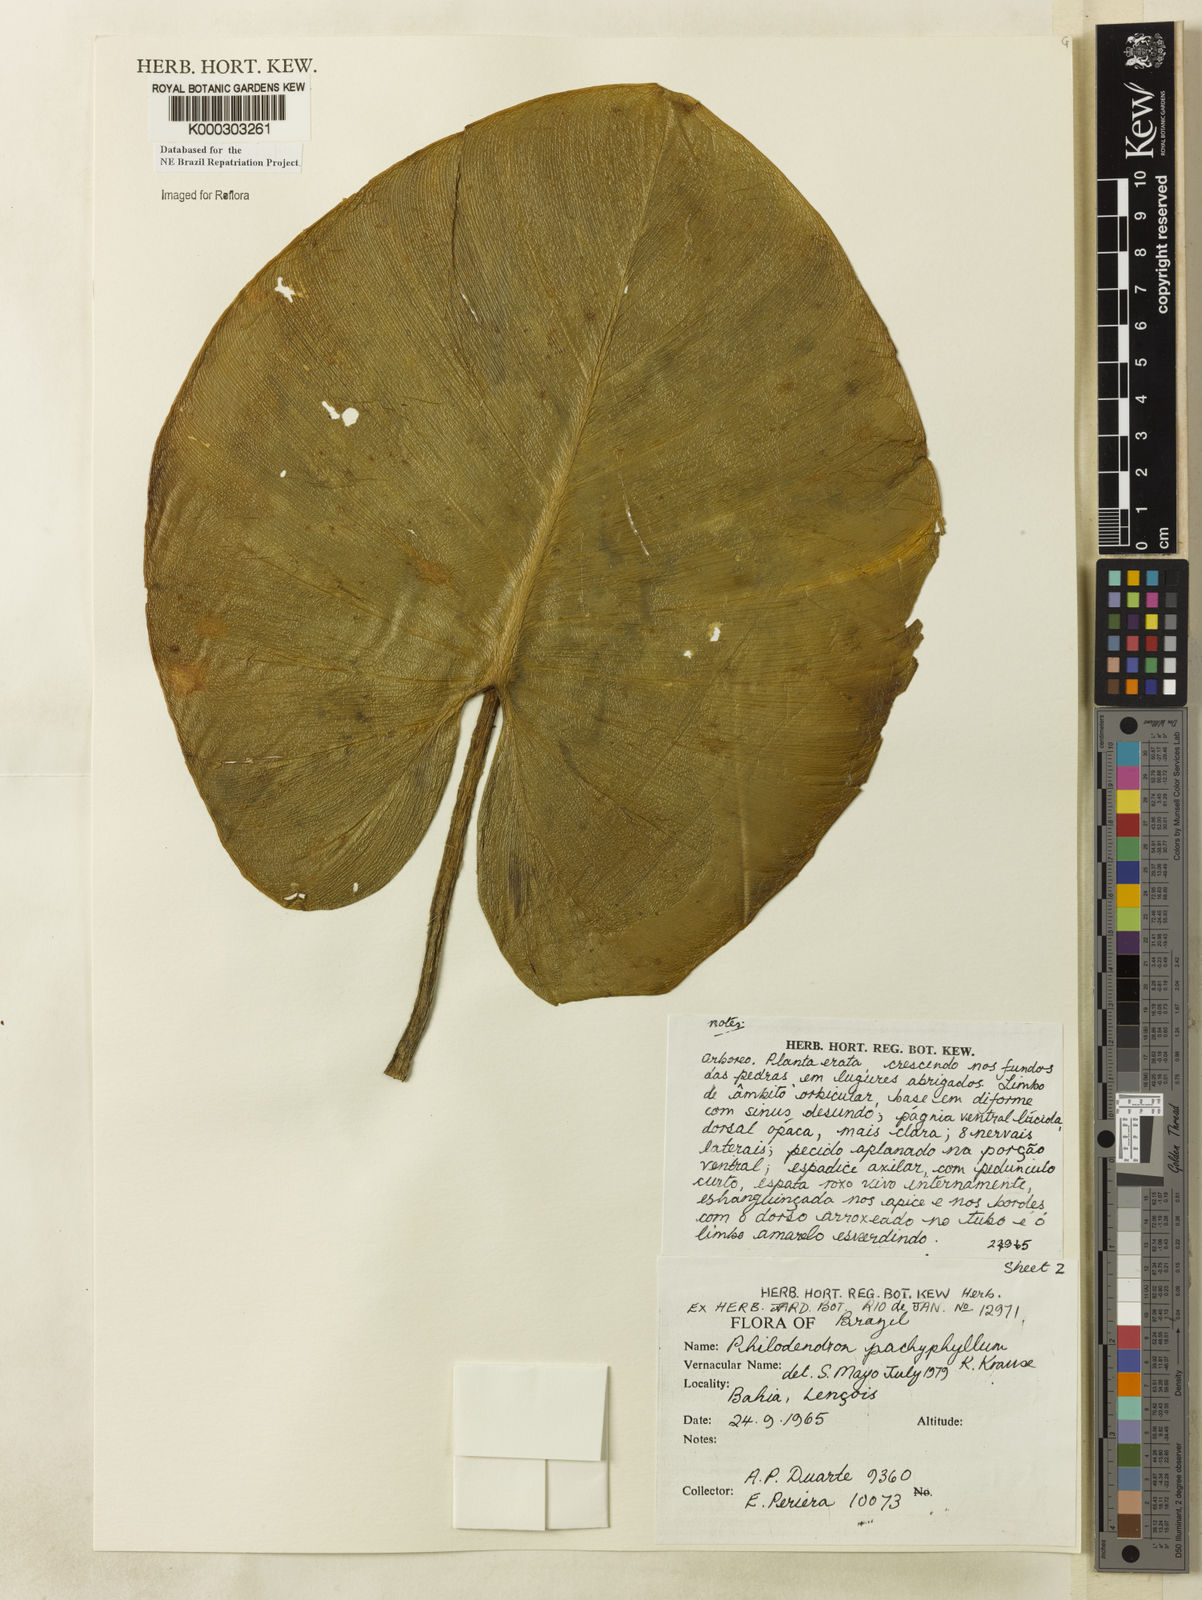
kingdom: Plantae
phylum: Tracheophyta
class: Liliopsida
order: Alismatales
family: Araceae
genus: Philodendron
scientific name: Philodendron pachyphyllum
